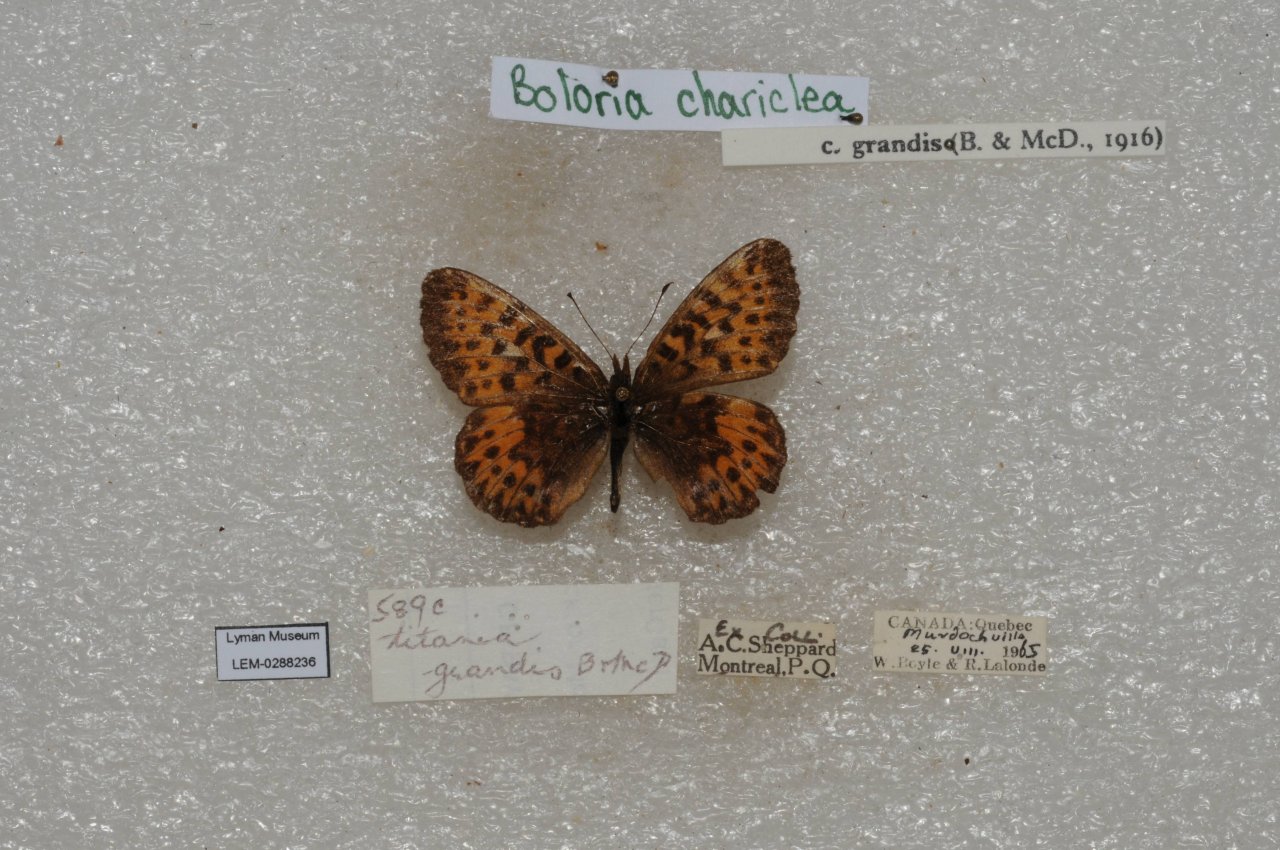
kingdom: Animalia
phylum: Arthropoda
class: Insecta
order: Lepidoptera
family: Nymphalidae
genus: Boloria
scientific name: Boloria chariclea
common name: Arctic Fritillary
